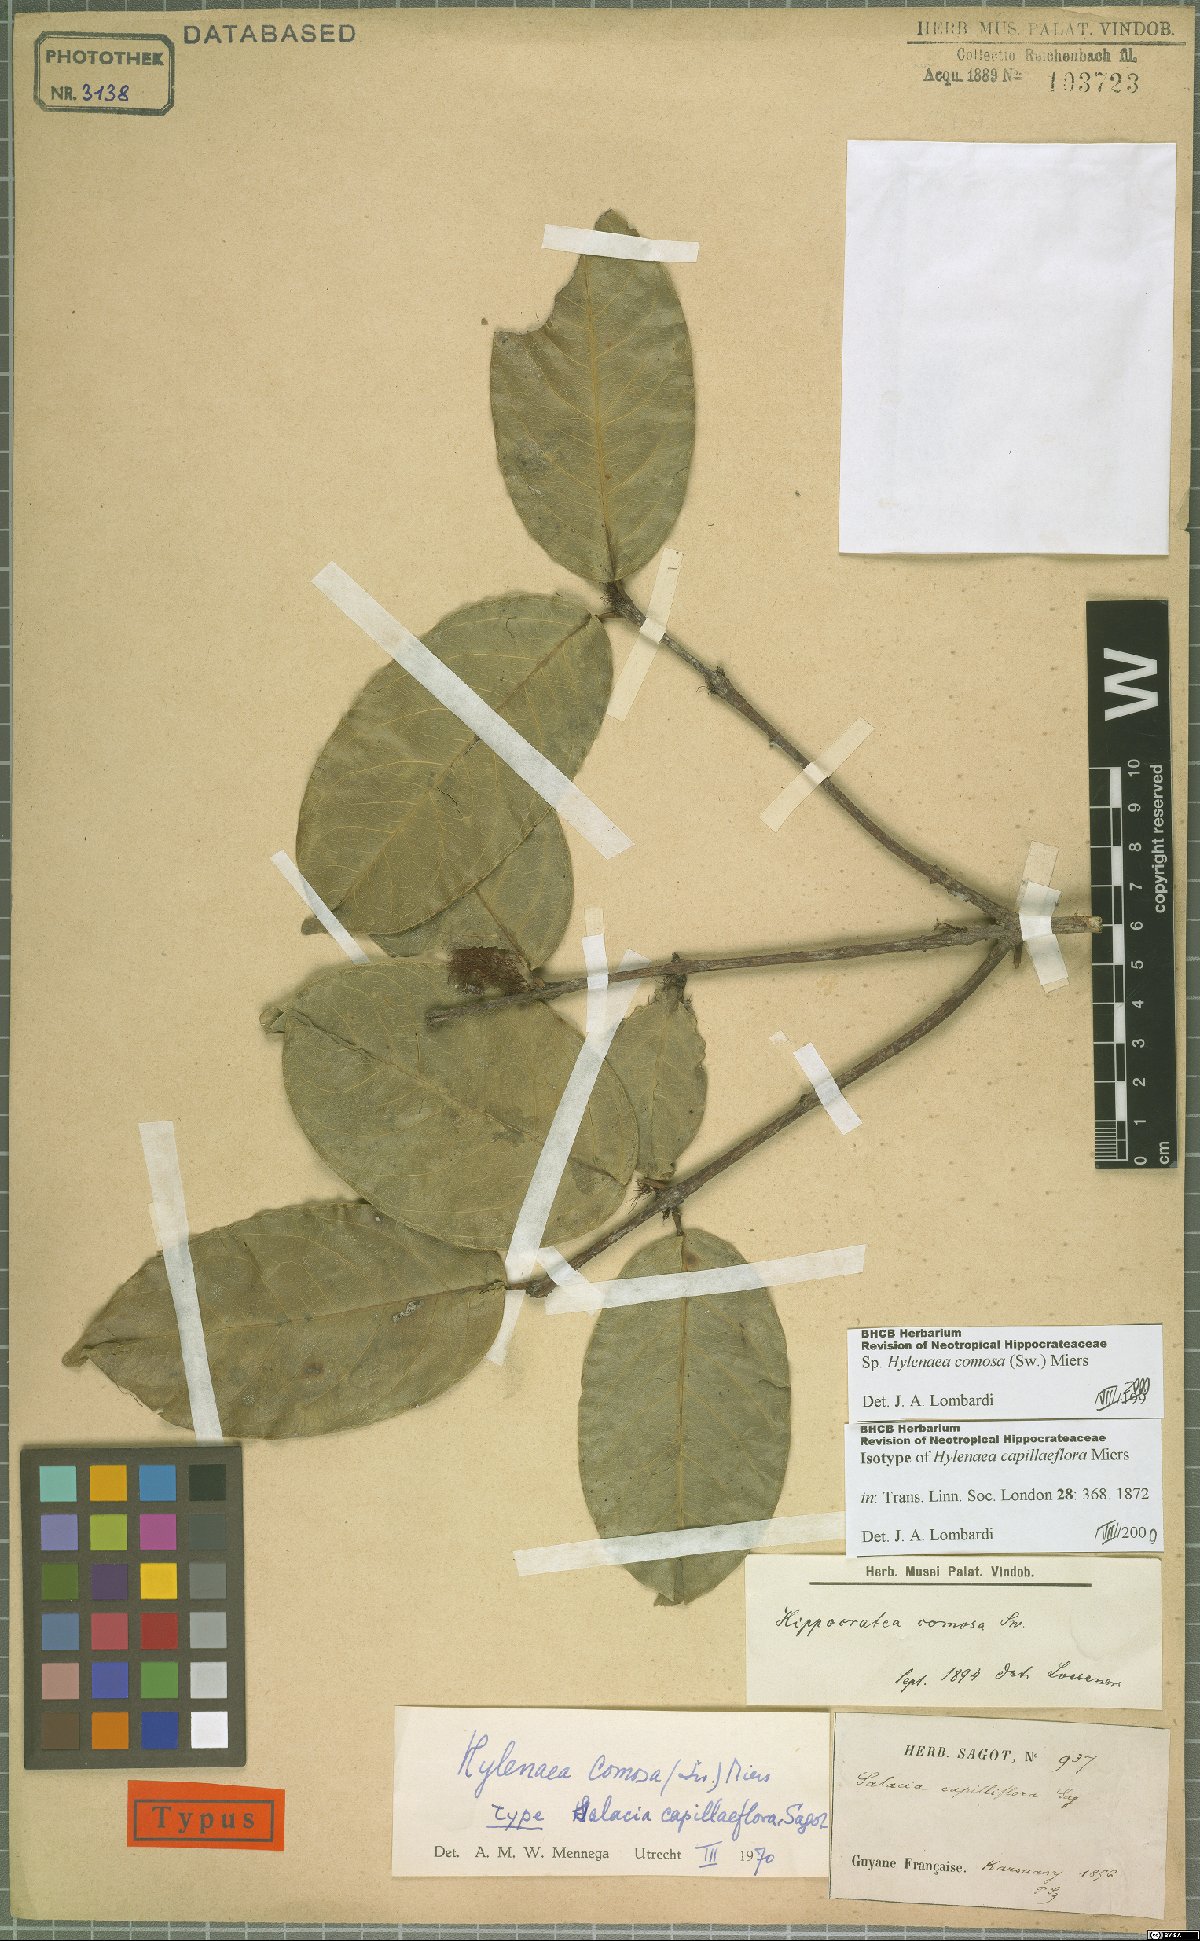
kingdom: Plantae
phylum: Tracheophyta
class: Magnoliopsida
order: Celastrales
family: Celastraceae
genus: Hylenaea
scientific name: Hylenaea comosa
